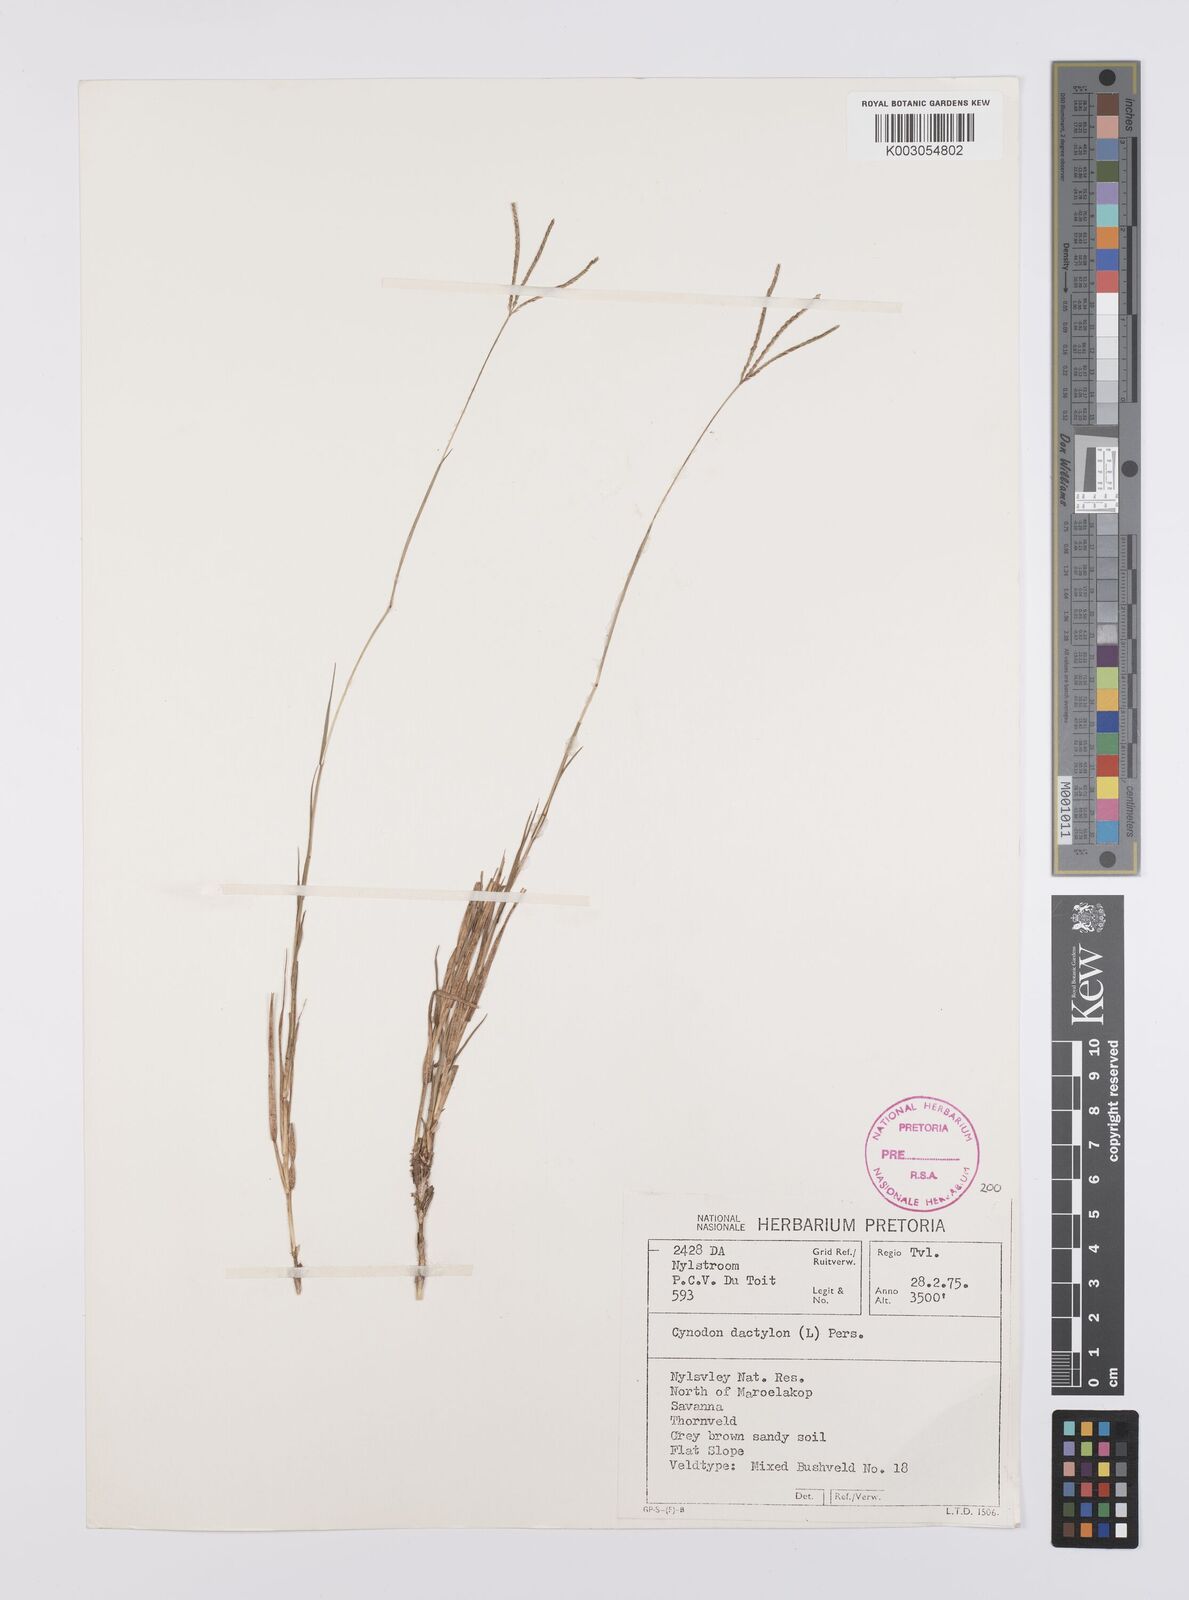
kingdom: Plantae
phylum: Tracheophyta
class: Liliopsida
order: Poales
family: Poaceae
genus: Cynodon
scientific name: Cynodon dactylon
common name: Bermuda grass
